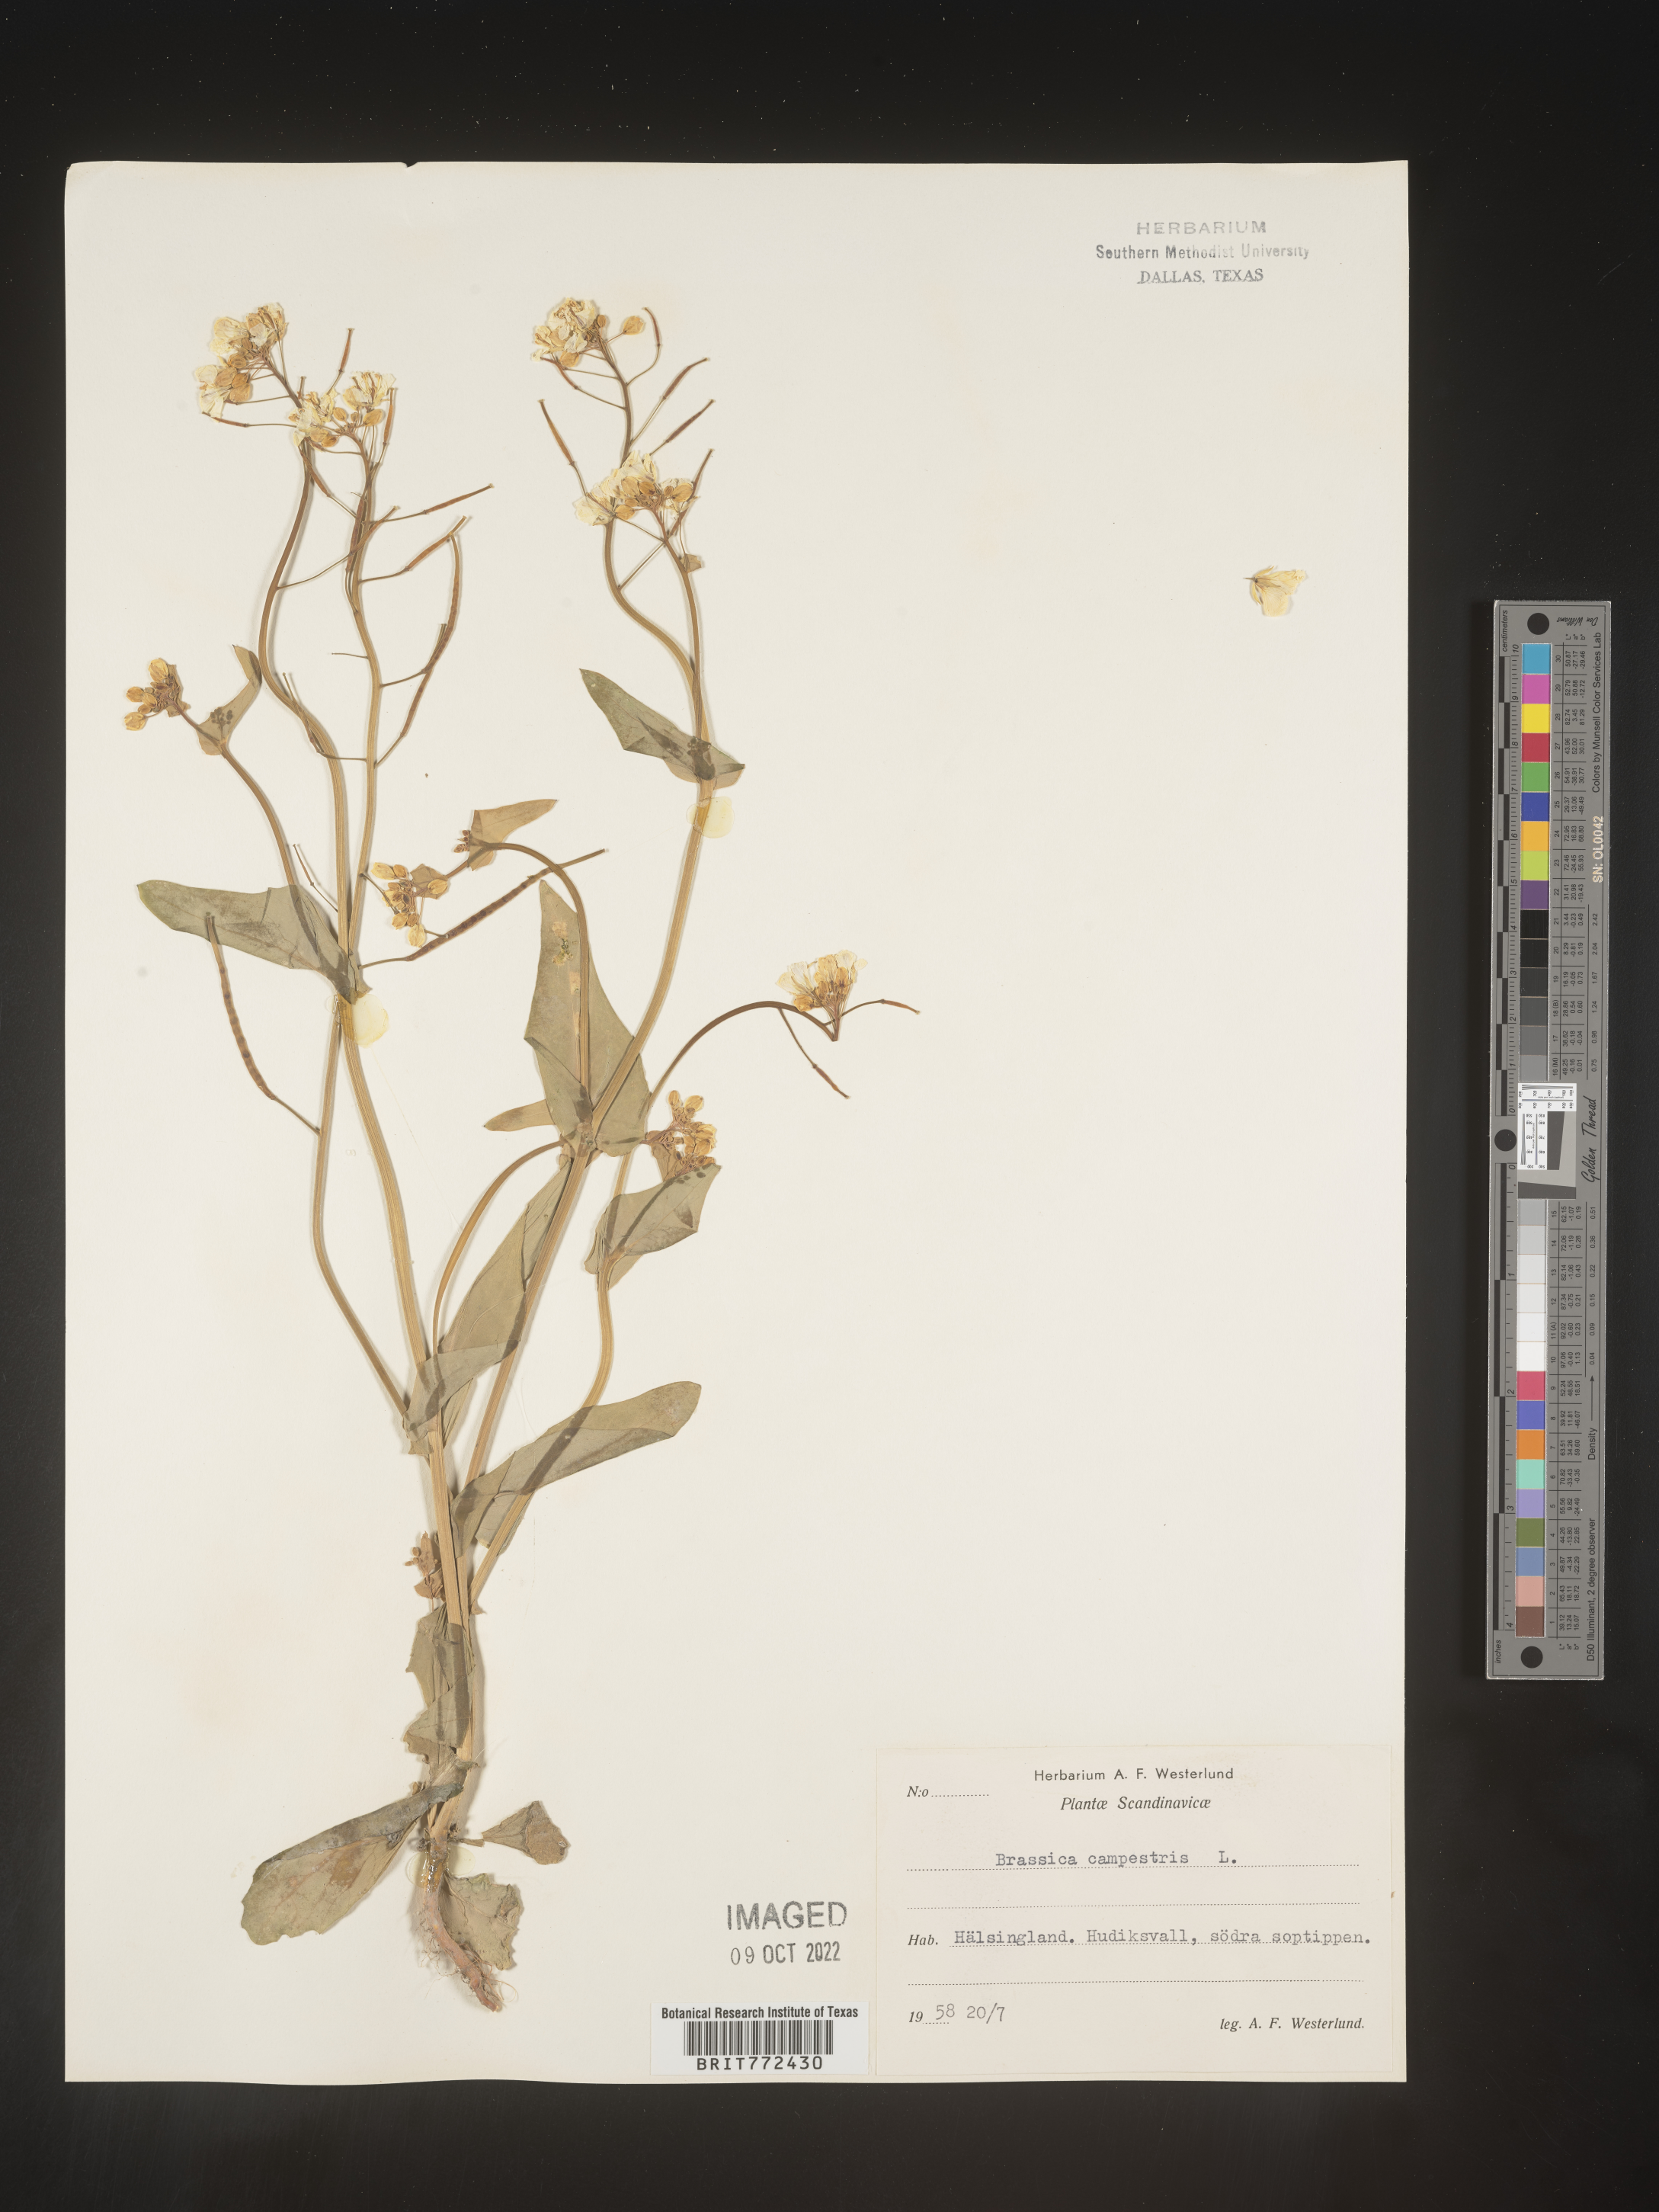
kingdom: Plantae
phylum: Tracheophyta
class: Magnoliopsida
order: Brassicales
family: Brassicaceae
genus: Brassica
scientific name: Brassica
